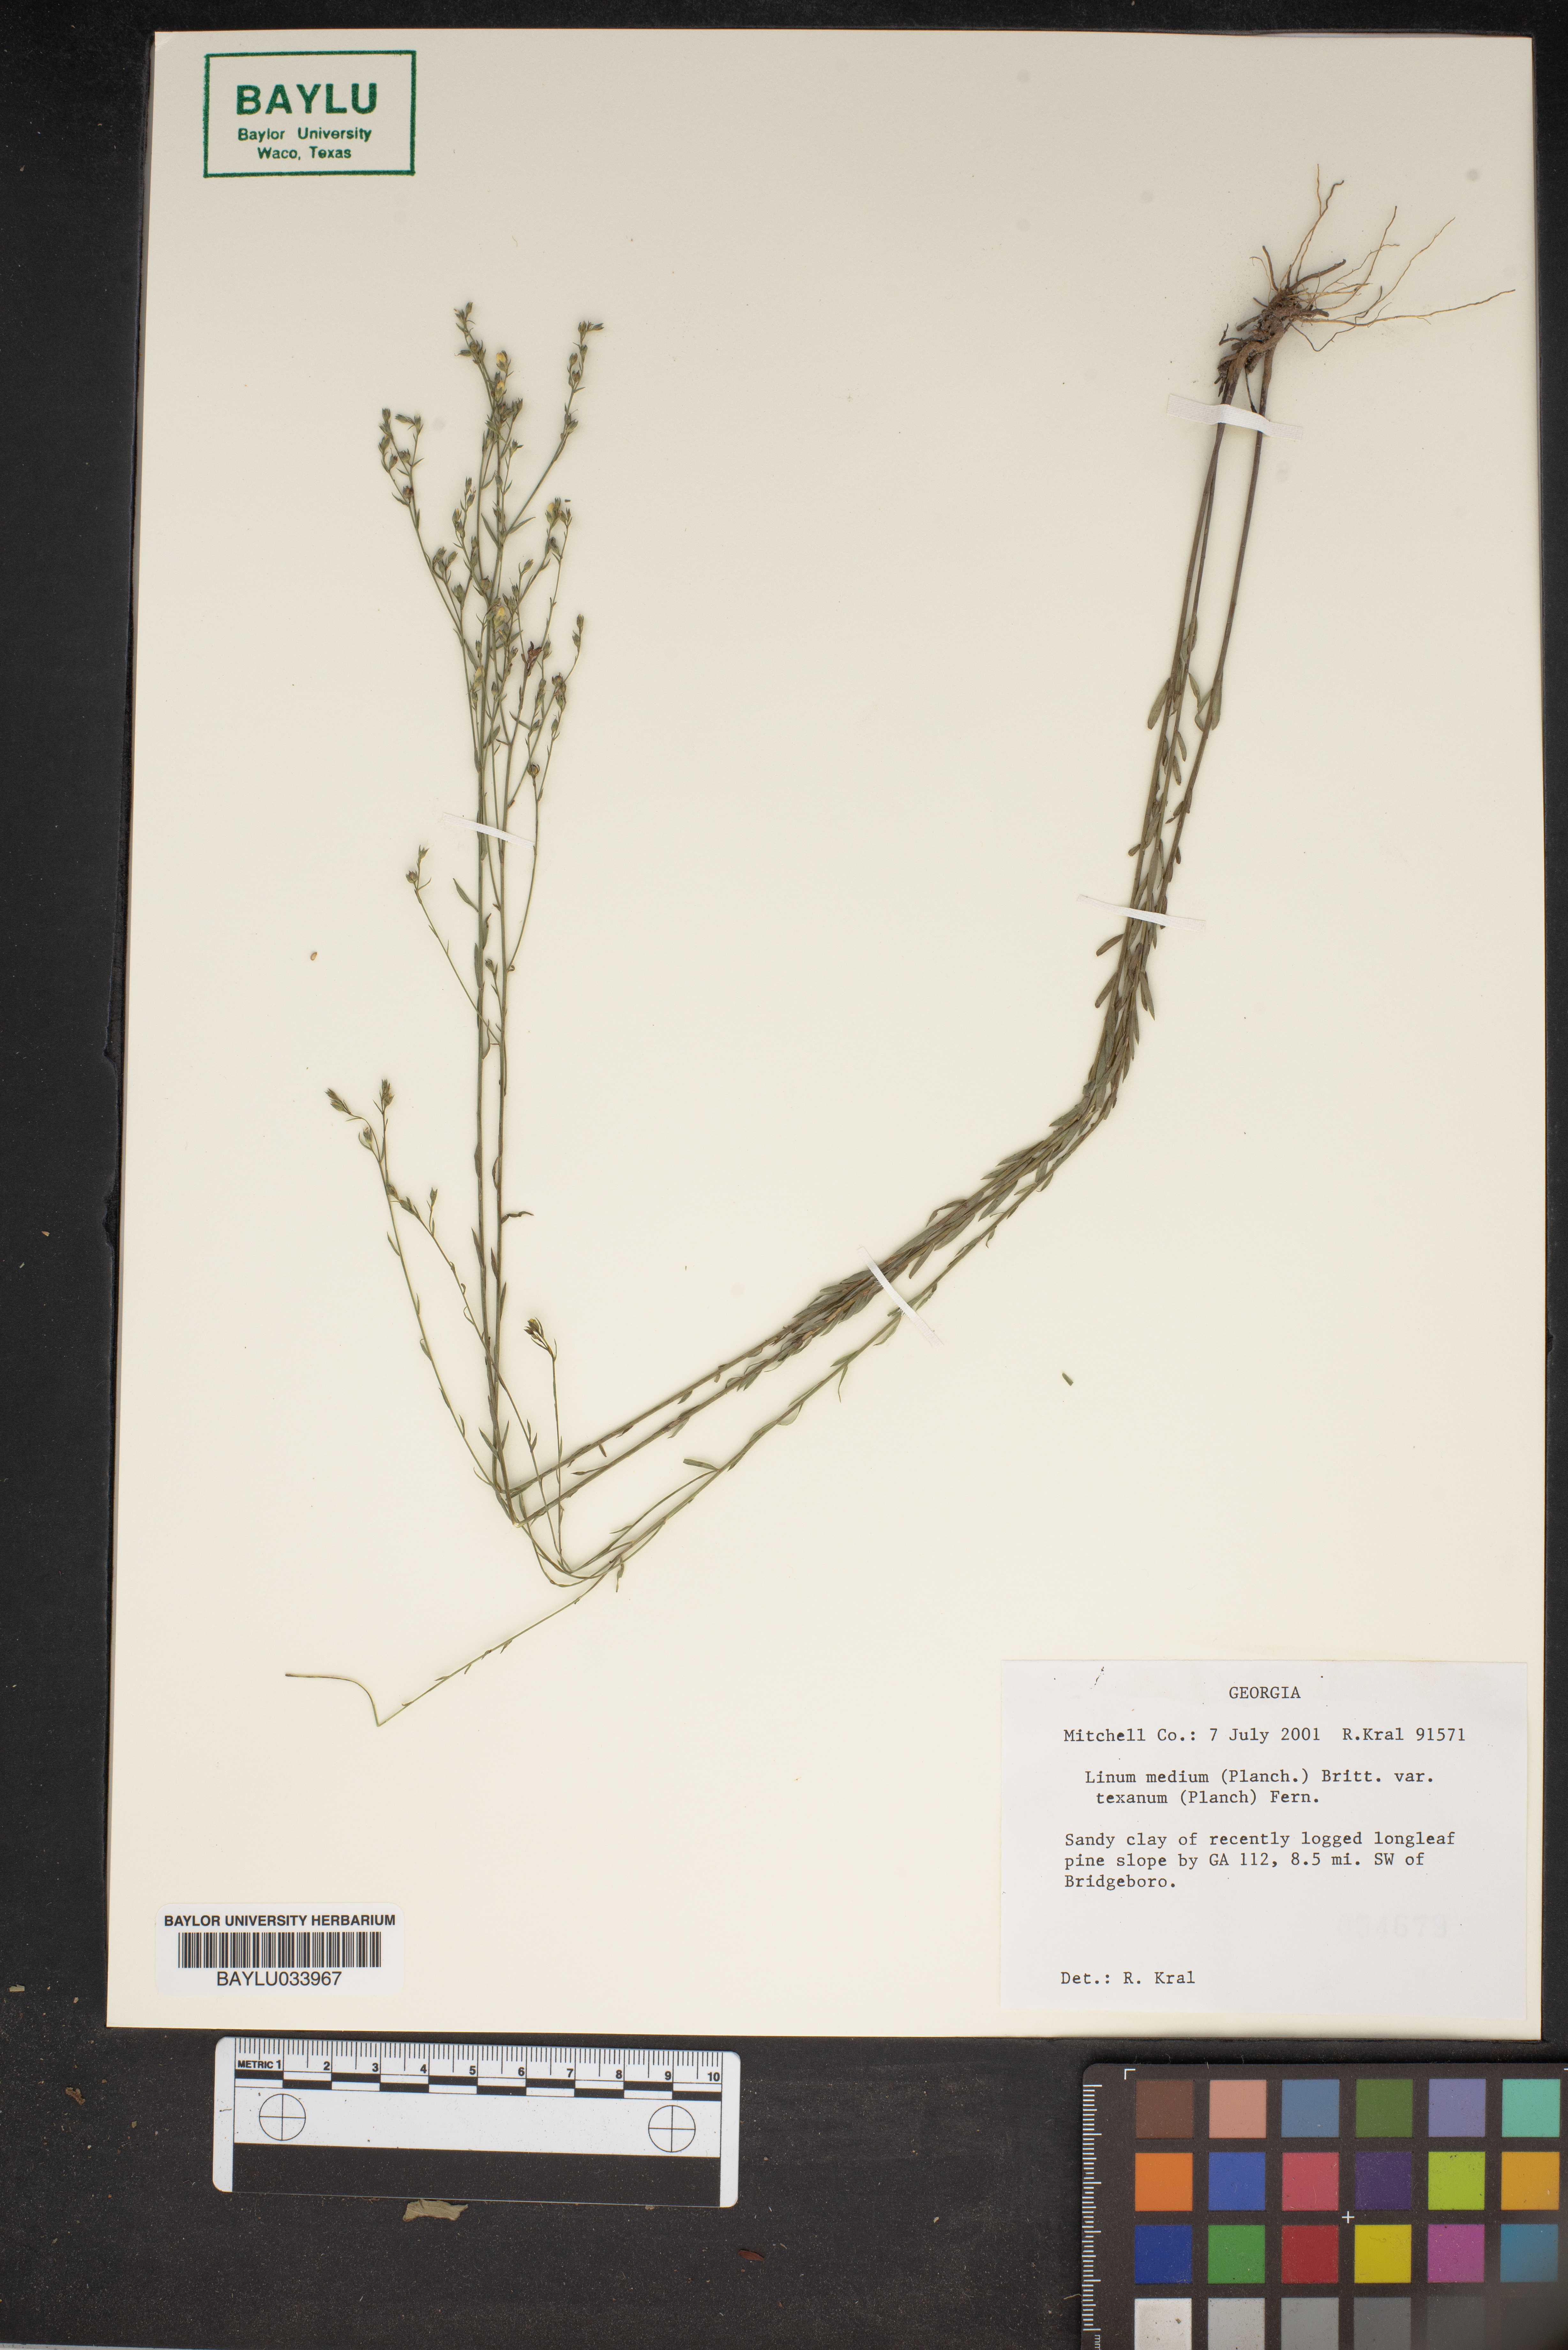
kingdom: Plantae
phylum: Tracheophyta
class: Magnoliopsida
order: Malpighiales
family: Linaceae
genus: Linum
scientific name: Linum medium
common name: Stiff yellow flax
